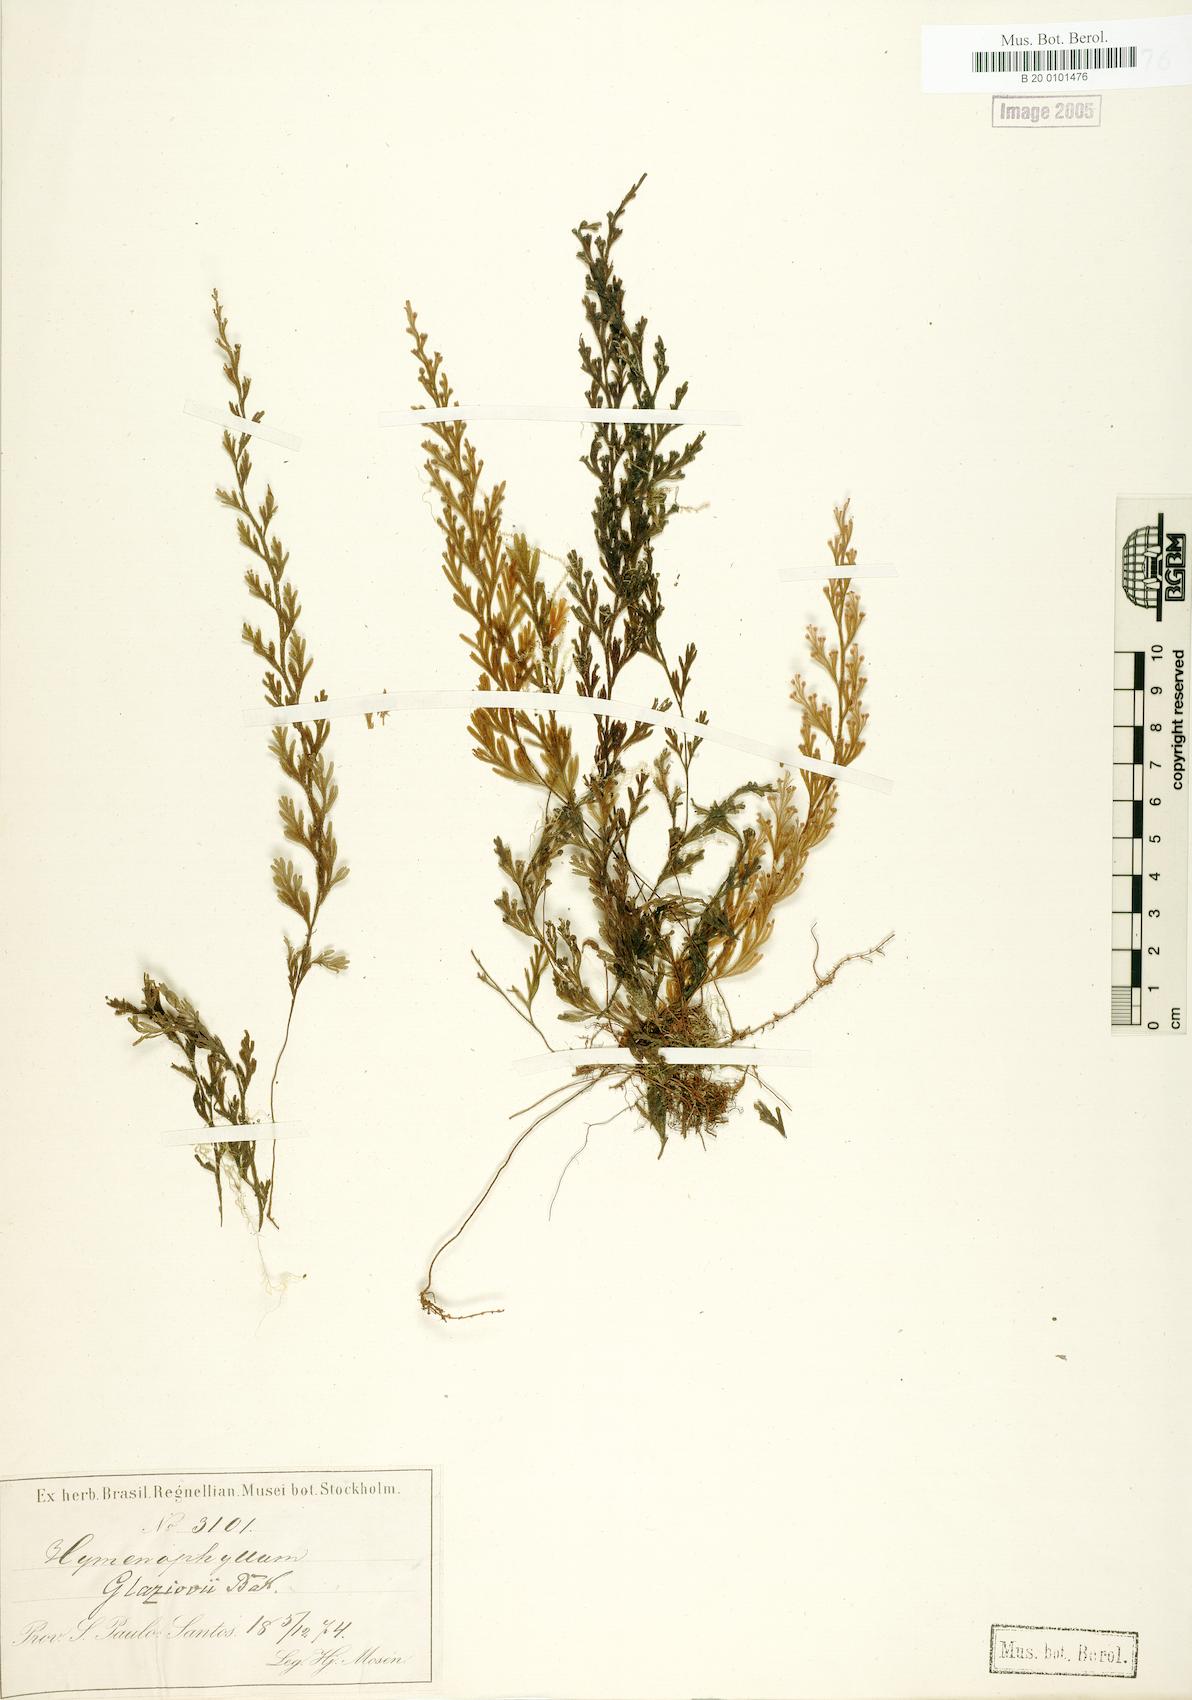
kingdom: Plantae
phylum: Tracheophyta
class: Polypodiopsida
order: Hymenophyllales
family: Hymenophyllaceae
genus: Hymenophyllum
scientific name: Hymenophyllum glaziovii
